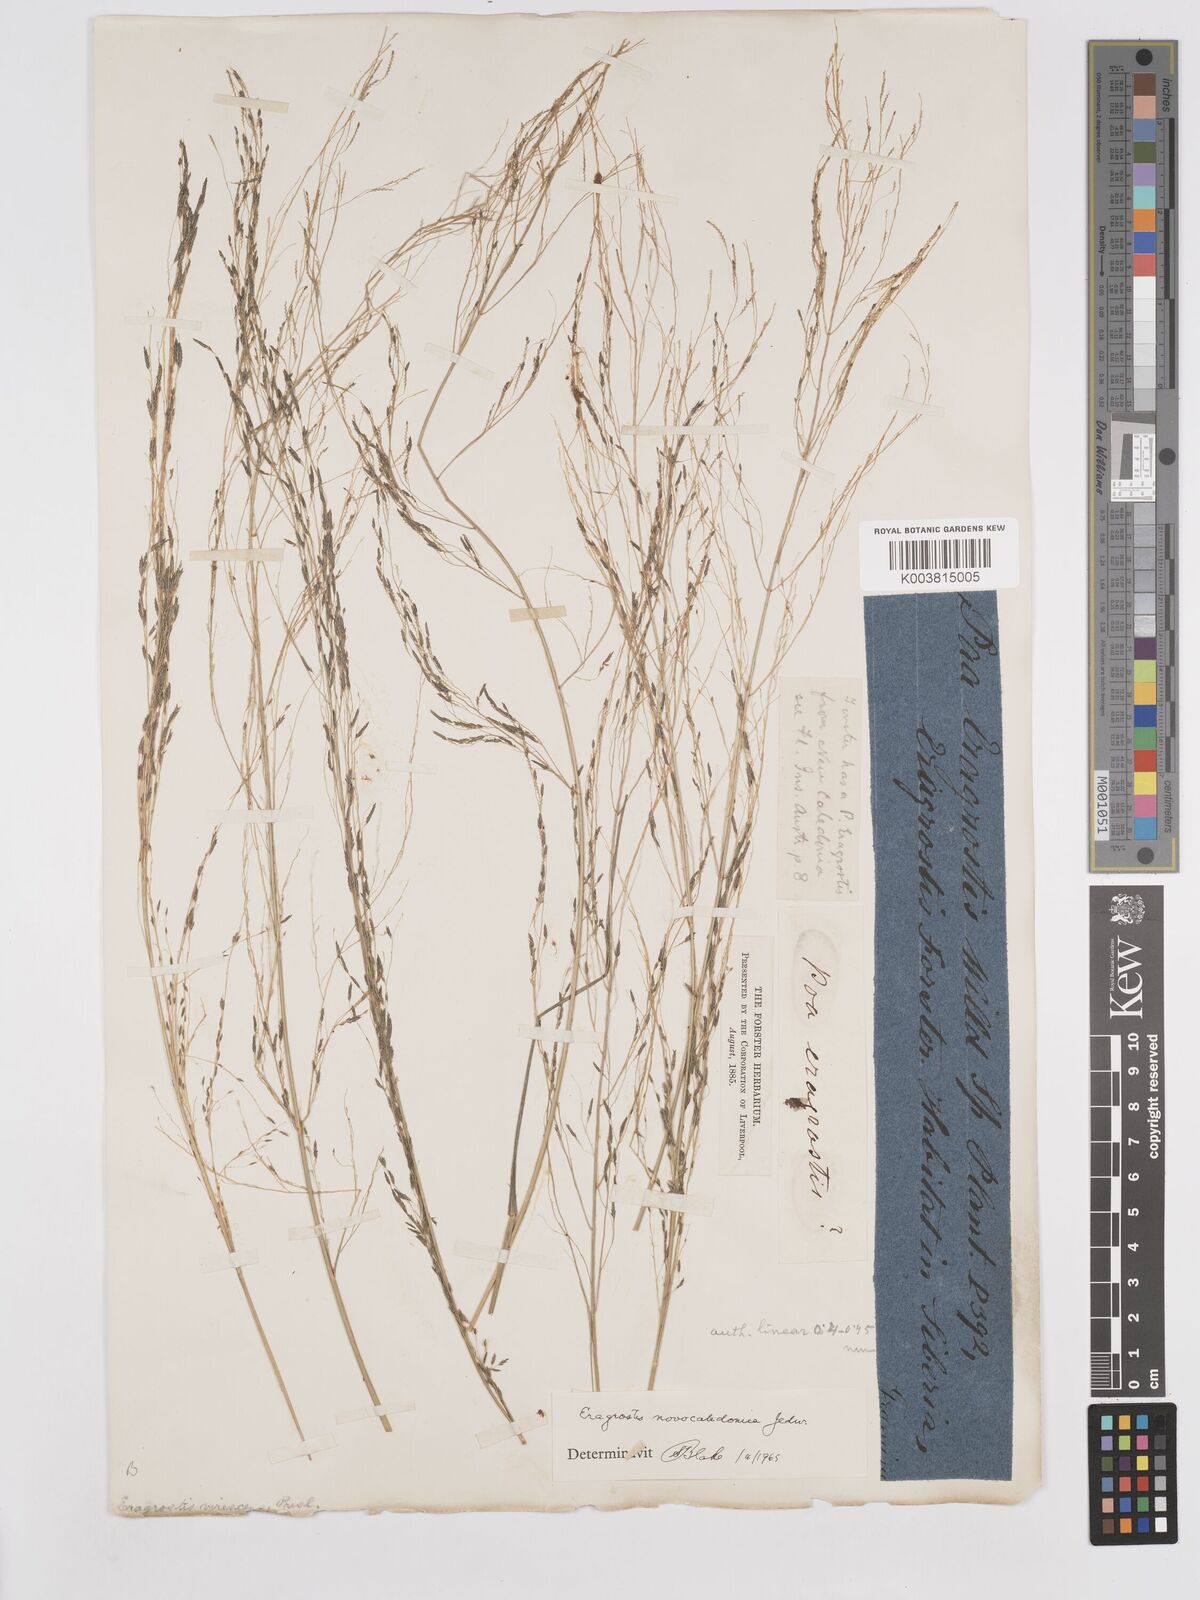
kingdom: Plantae
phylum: Tracheophyta
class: Liliopsida
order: Poales
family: Poaceae
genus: Eragrostis
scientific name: Eragrostis parviflora
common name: Weeping love-grass
